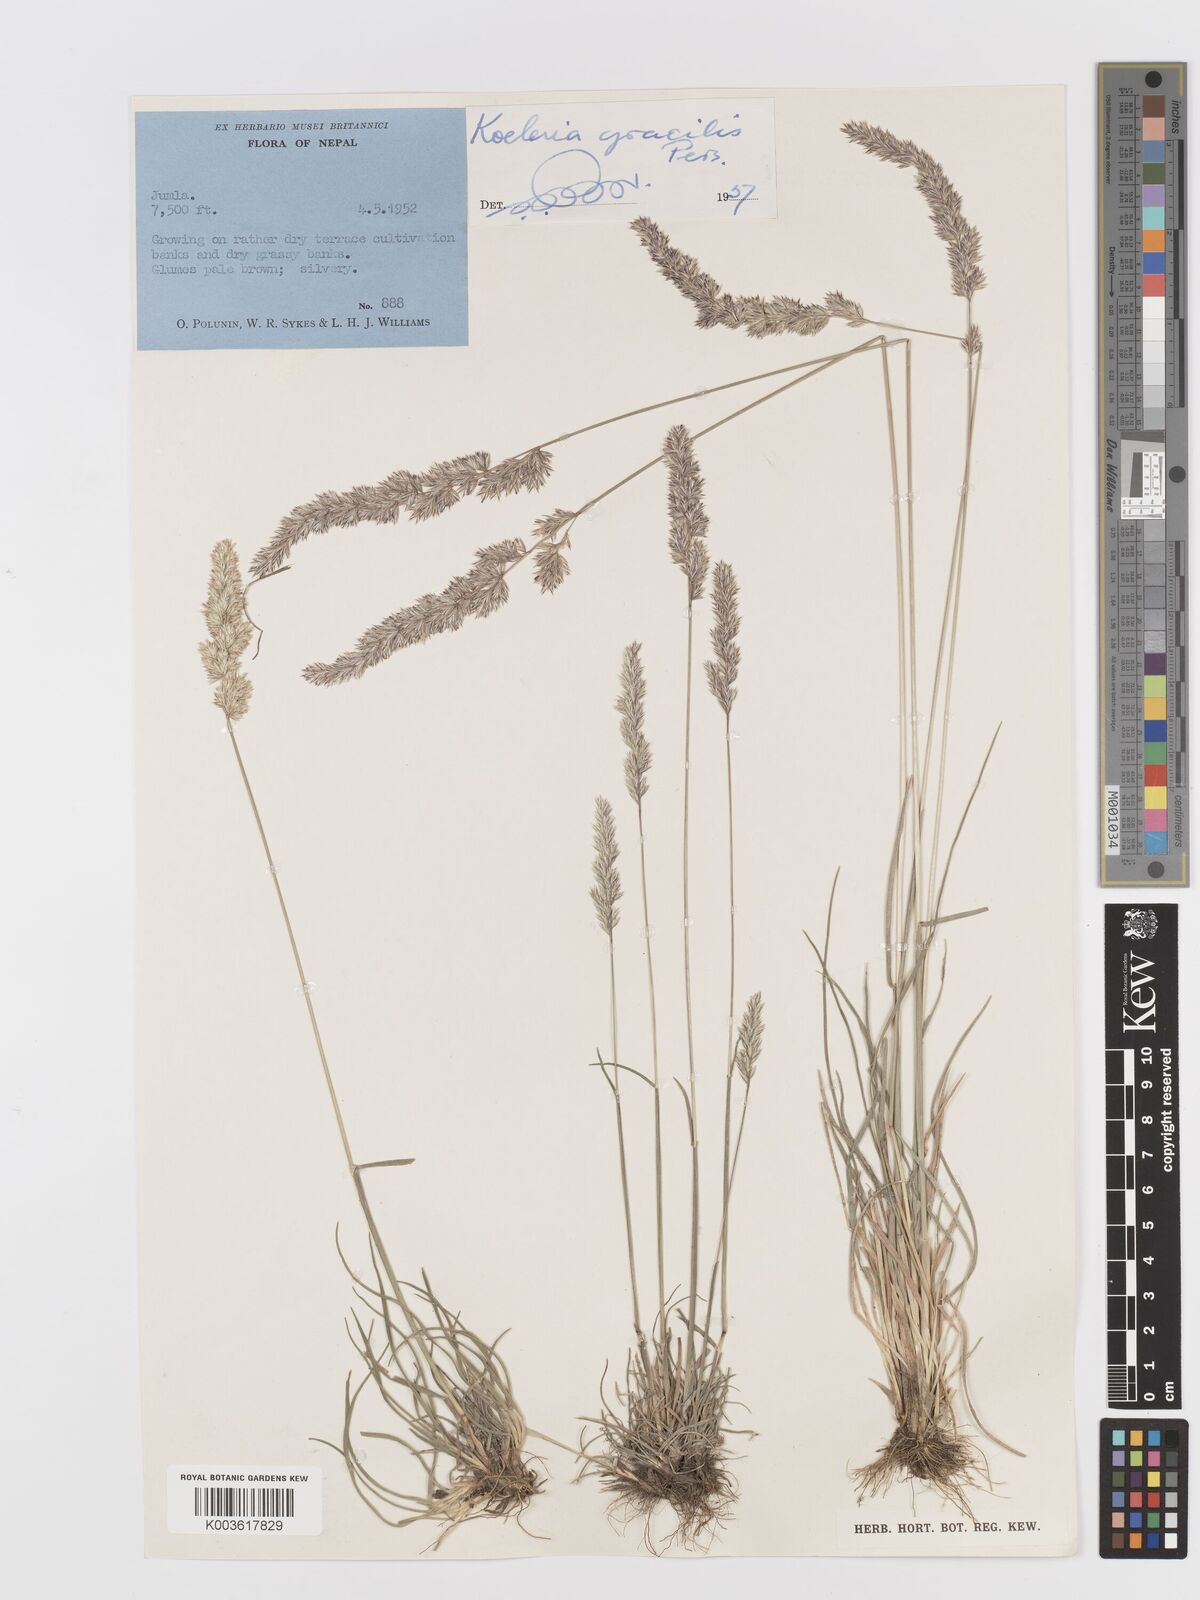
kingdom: Plantae
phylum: Tracheophyta
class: Liliopsida
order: Poales
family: Poaceae
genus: Koeleria
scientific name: Koeleria macrantha
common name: Crested hair-grass
